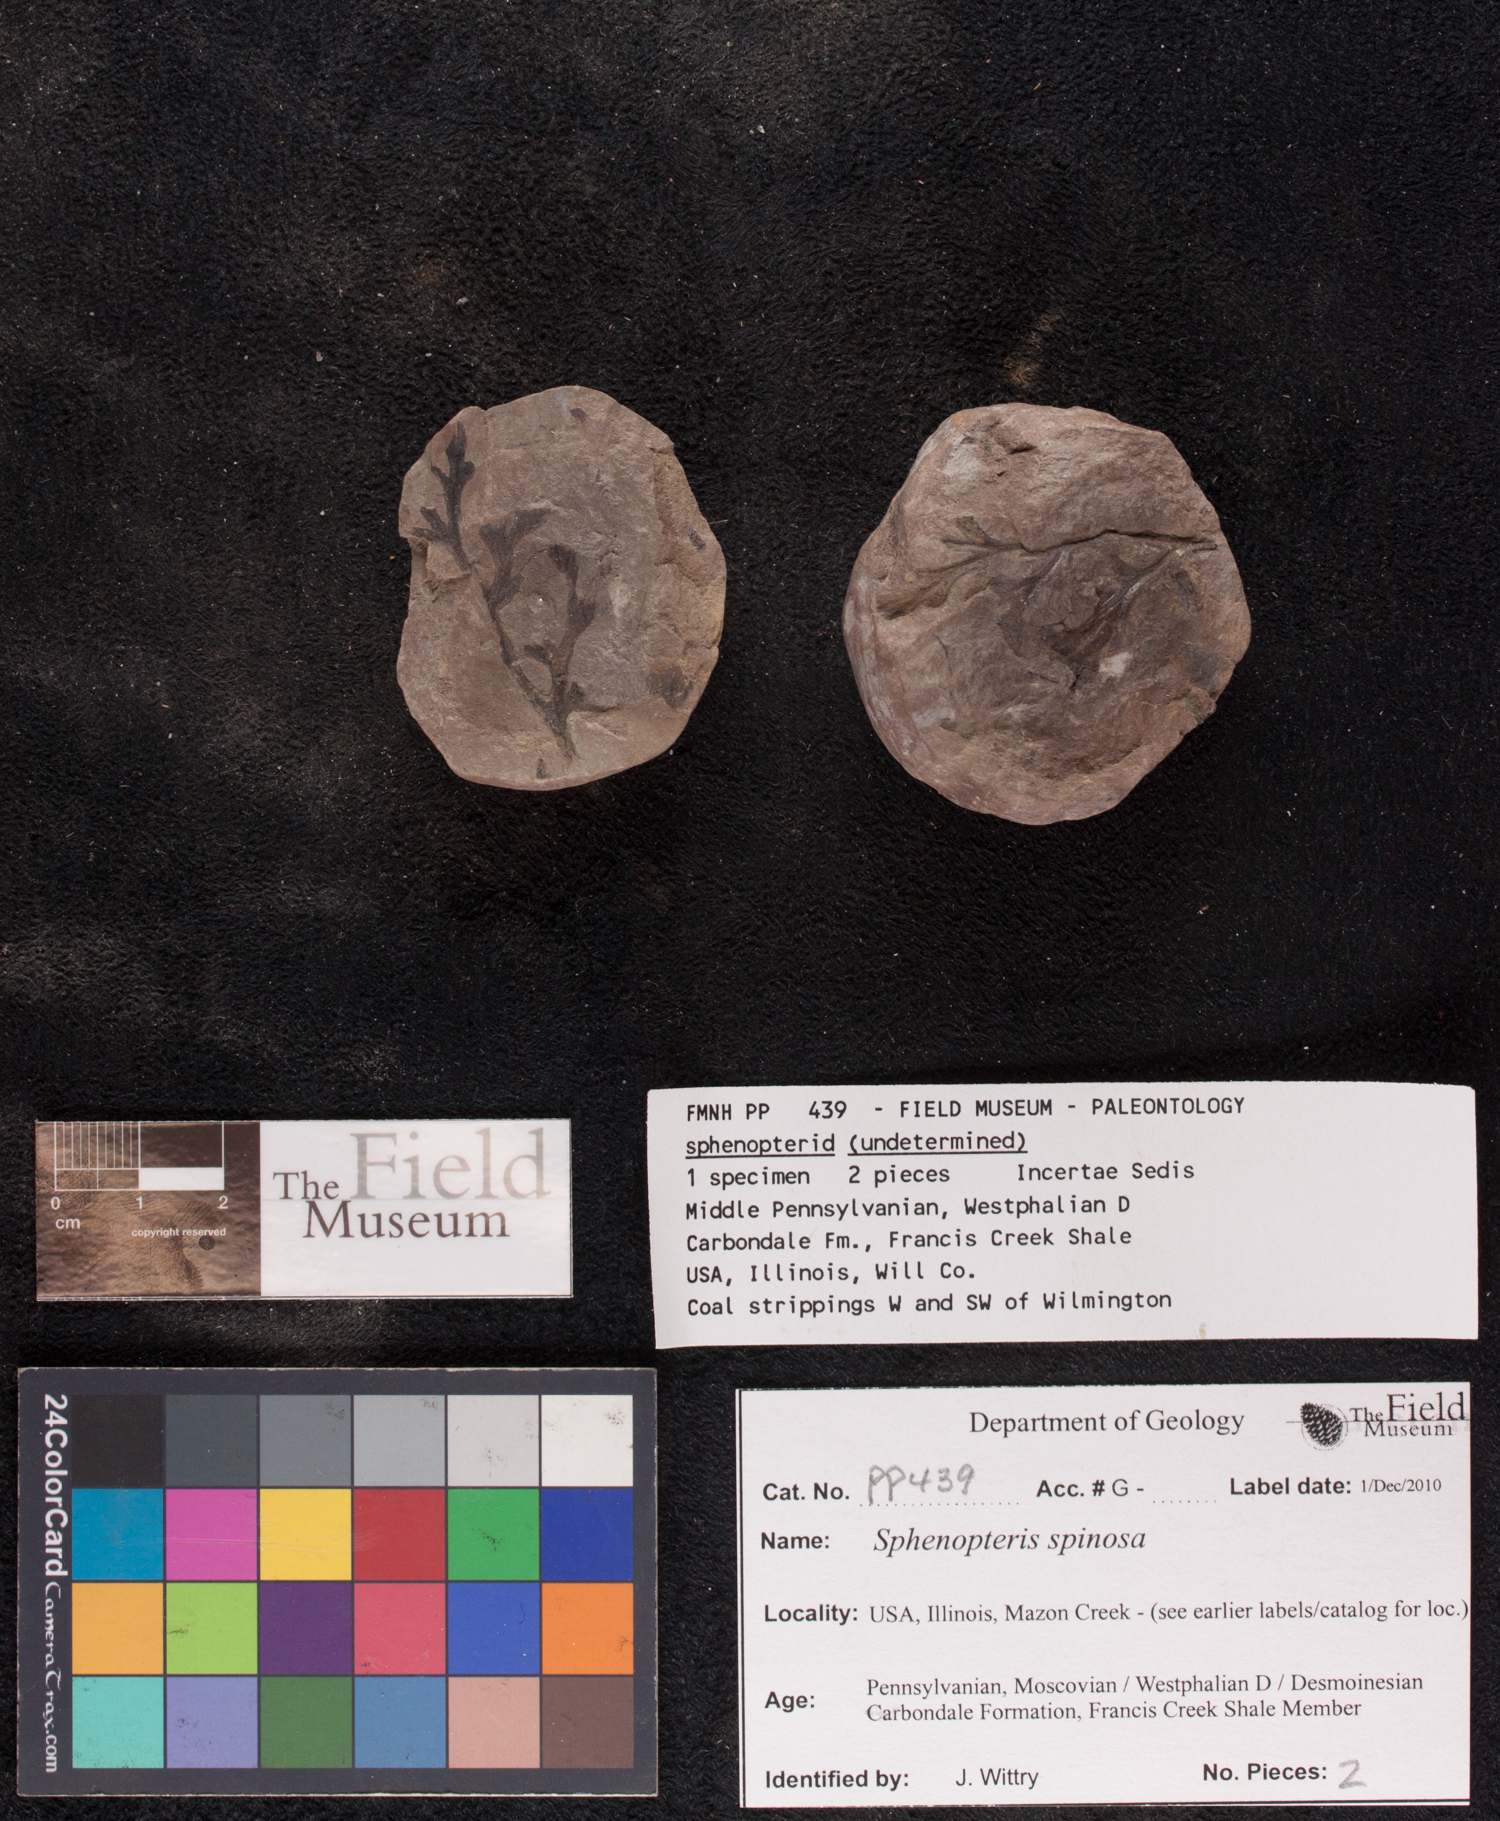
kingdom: Plantae
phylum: Tracheophyta
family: Lyginopteridaceae
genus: Sphenopteris
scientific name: Sphenopteris
